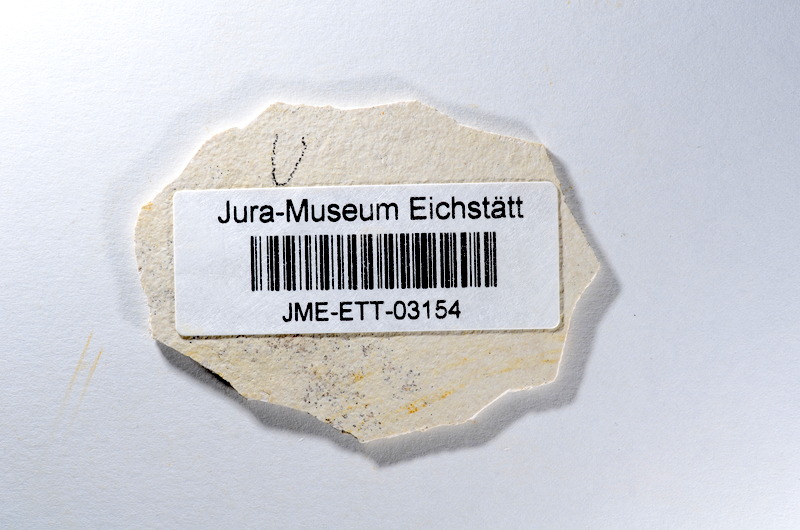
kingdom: Animalia
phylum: Chordata
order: Salmoniformes
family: Orthogonikleithridae
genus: Orthogonikleithrus
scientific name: Orthogonikleithrus hoelli
